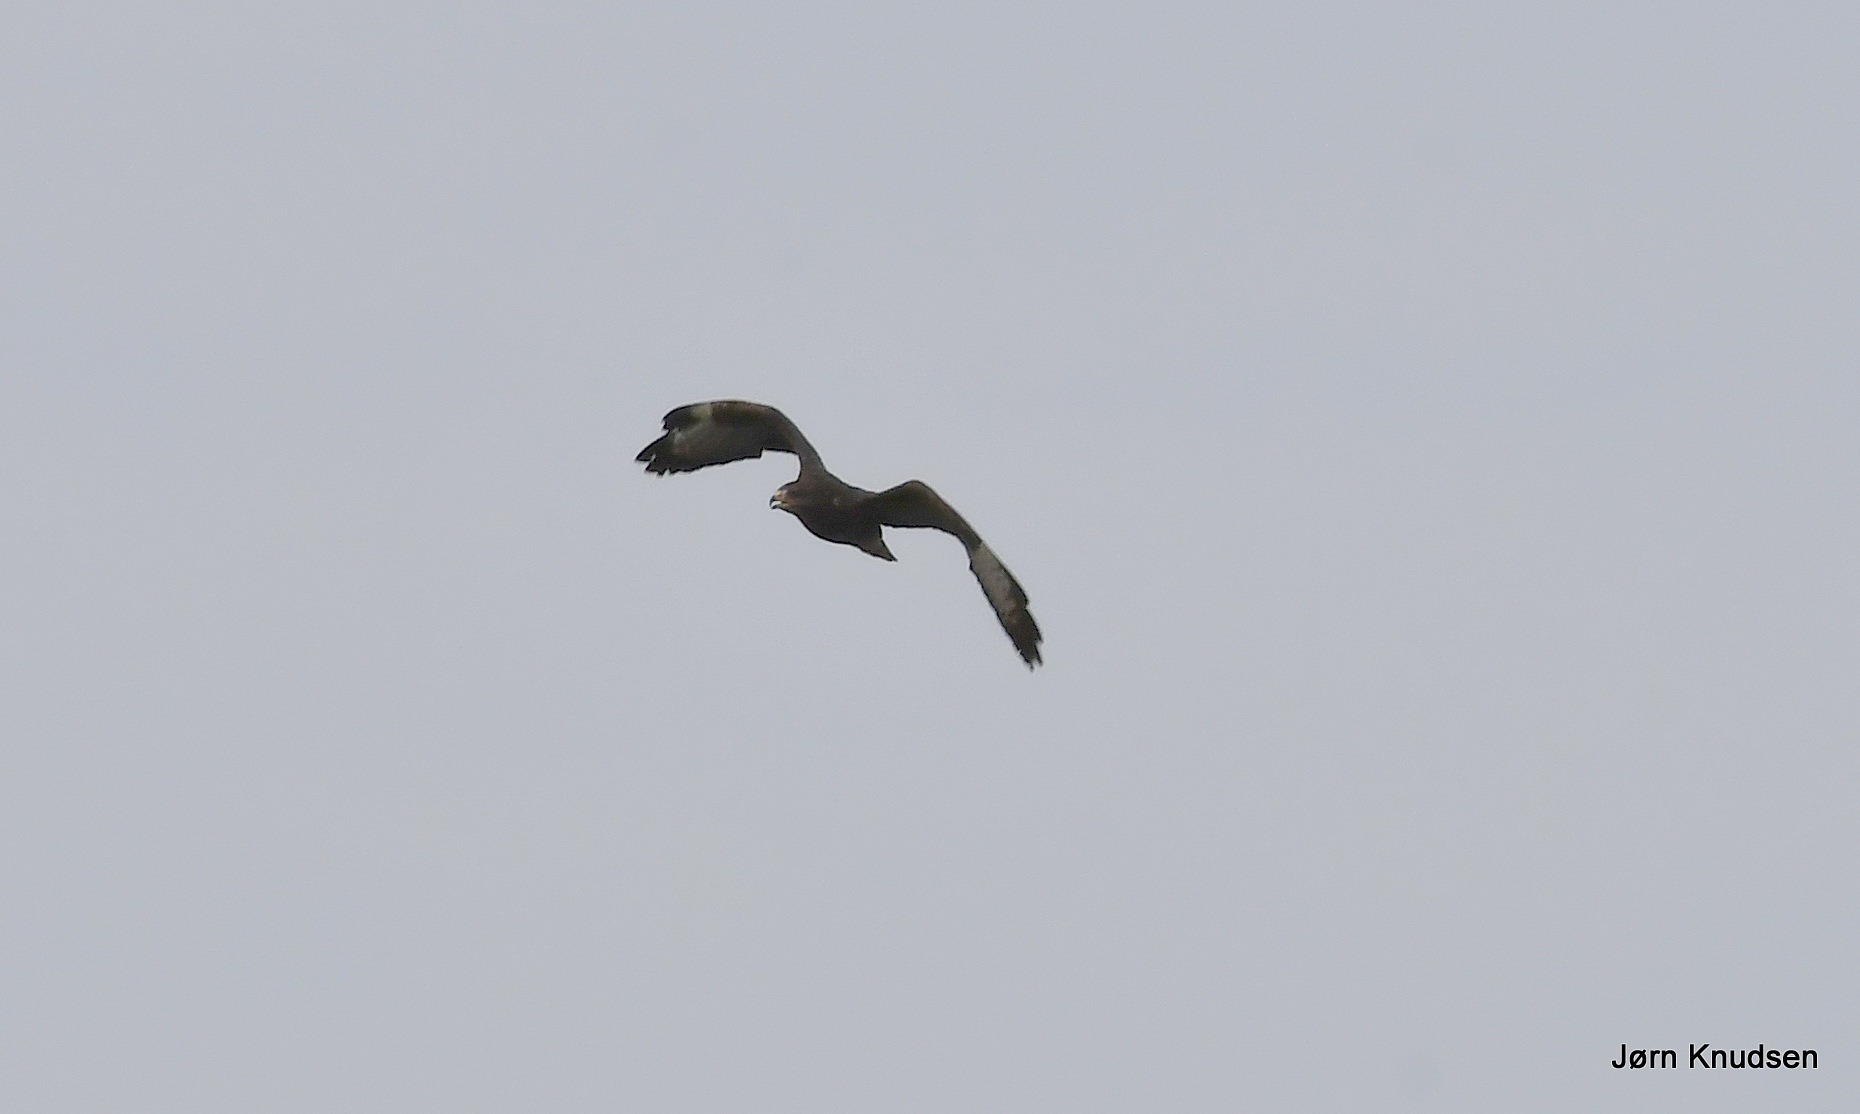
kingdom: Animalia
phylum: Chordata
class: Aves
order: Accipitriformes
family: Accipitridae
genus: Buteo
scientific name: Buteo buteo
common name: Musvåge
